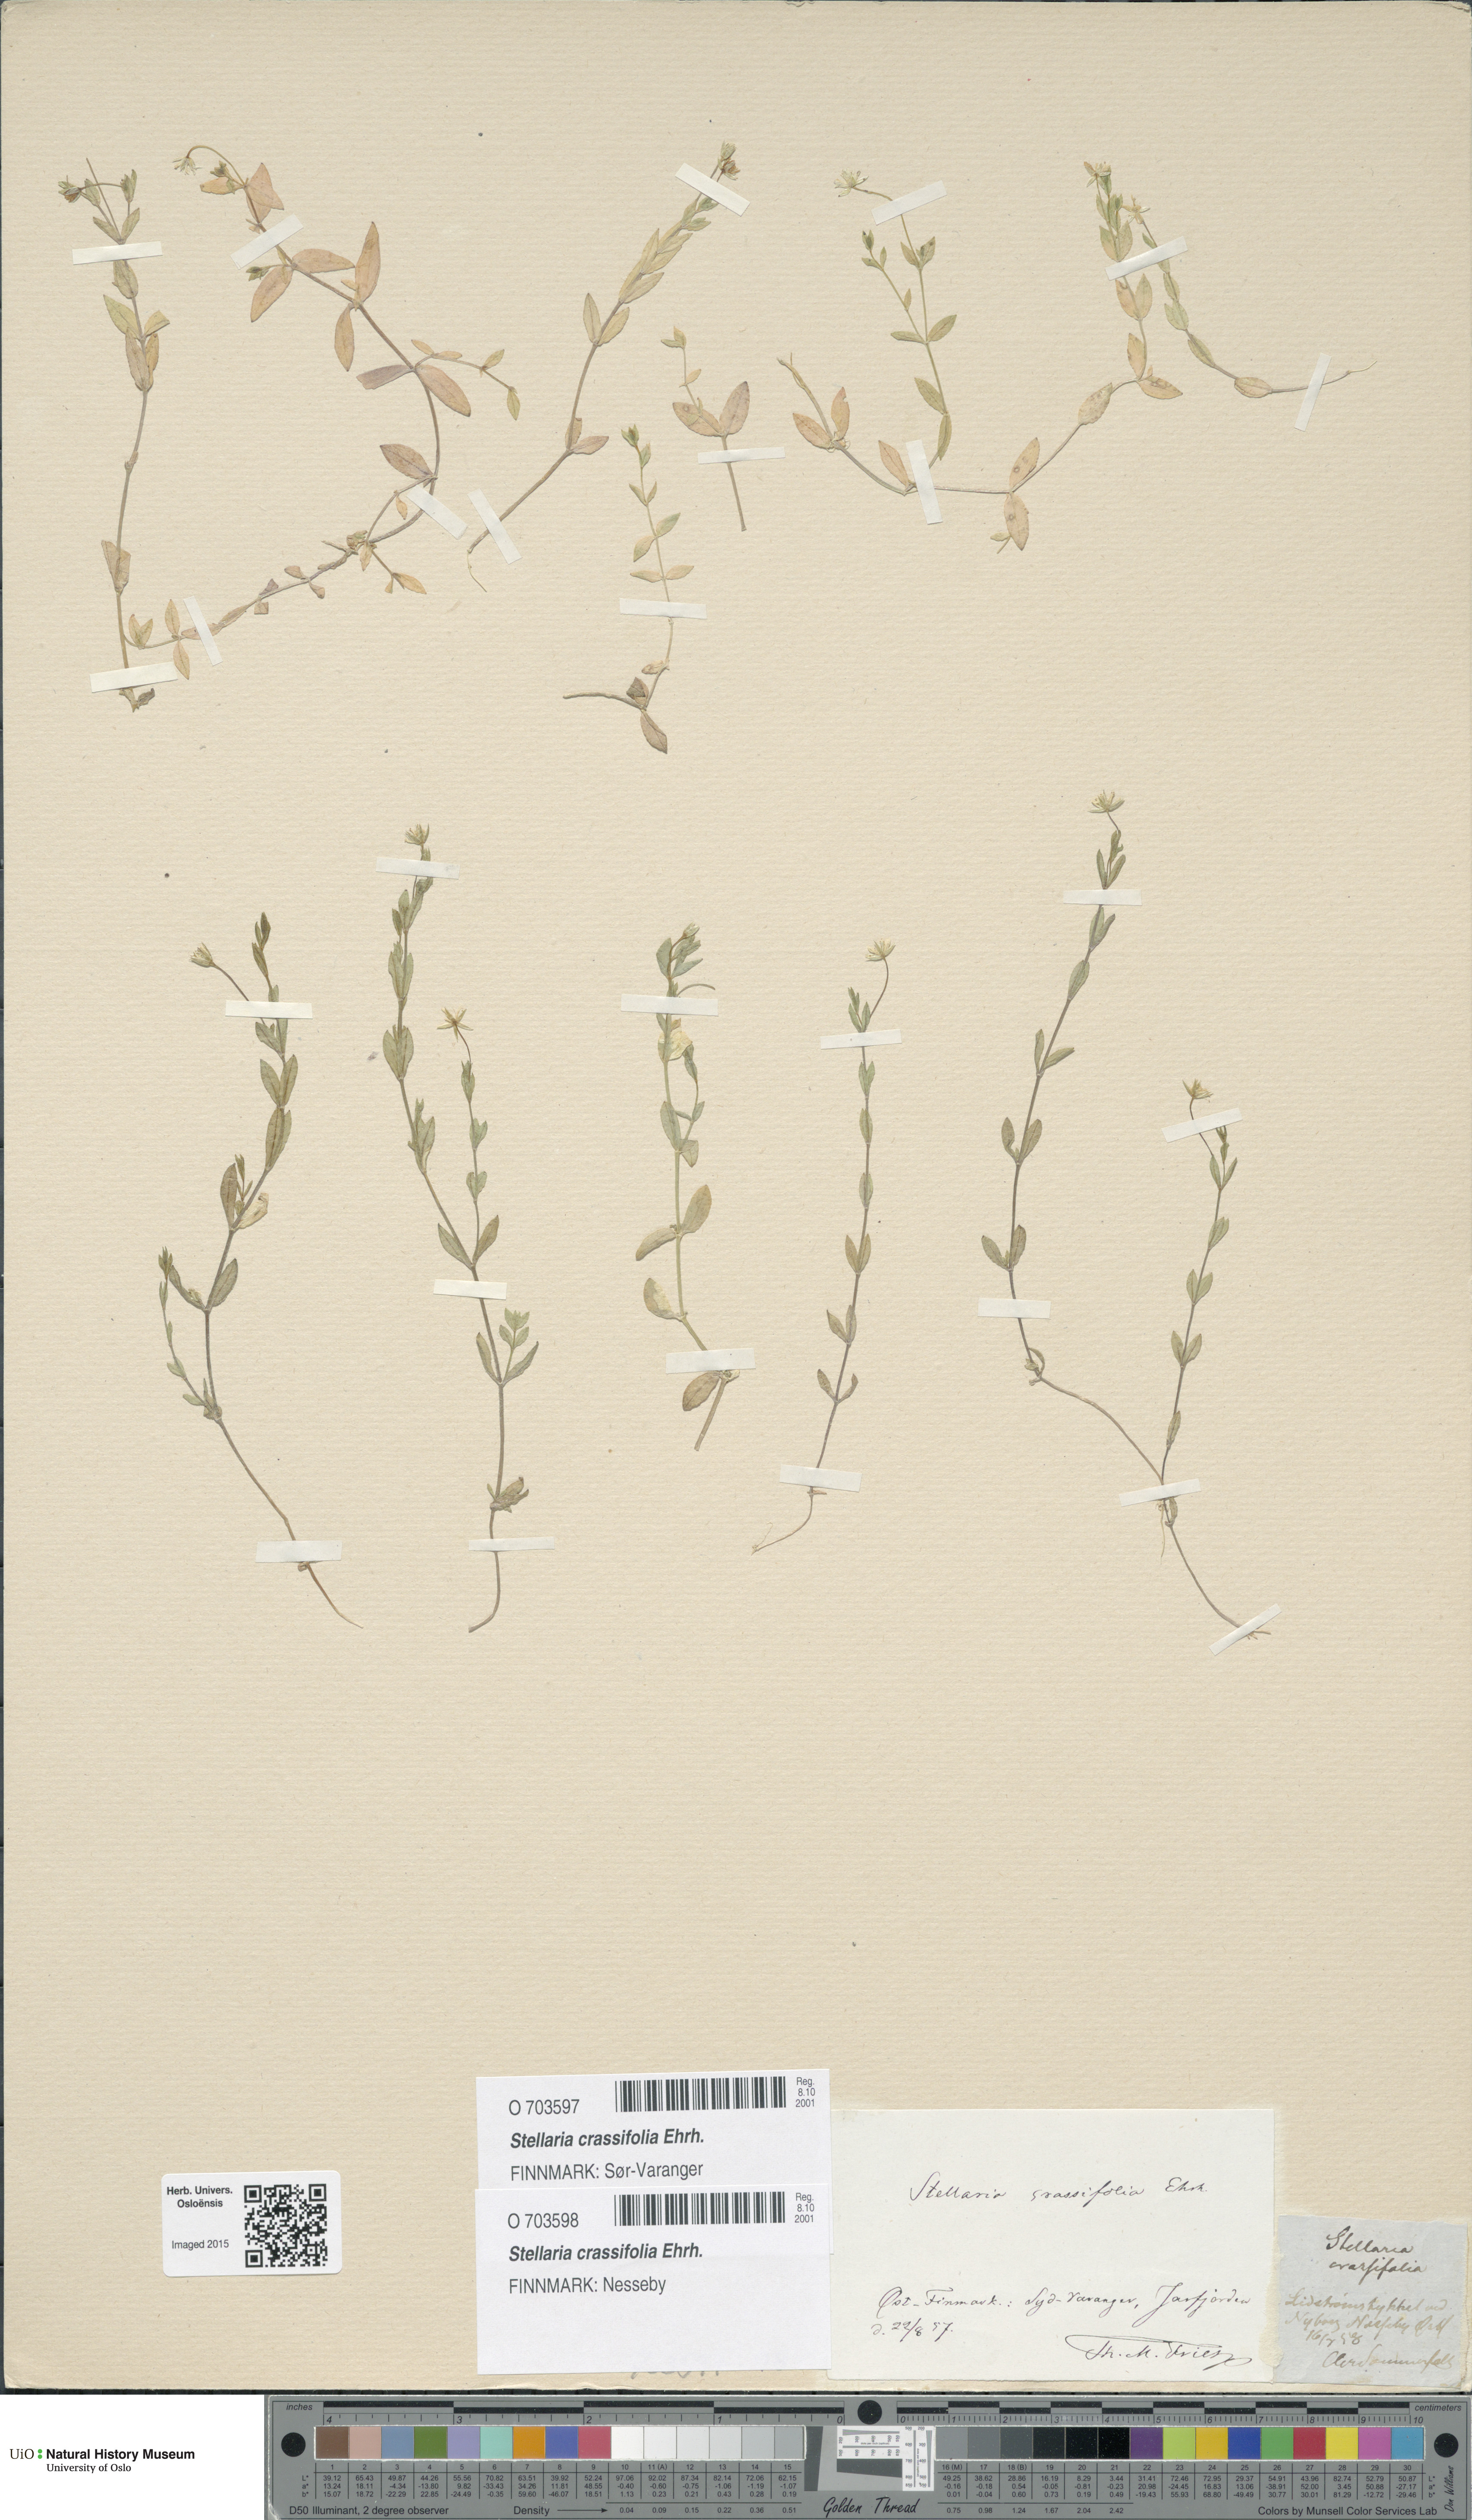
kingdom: Plantae
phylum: Tracheophyta
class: Magnoliopsida
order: Caryophyllales
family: Caryophyllaceae
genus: Stellaria
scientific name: Stellaria crassifolia
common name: Fleshy starwort
